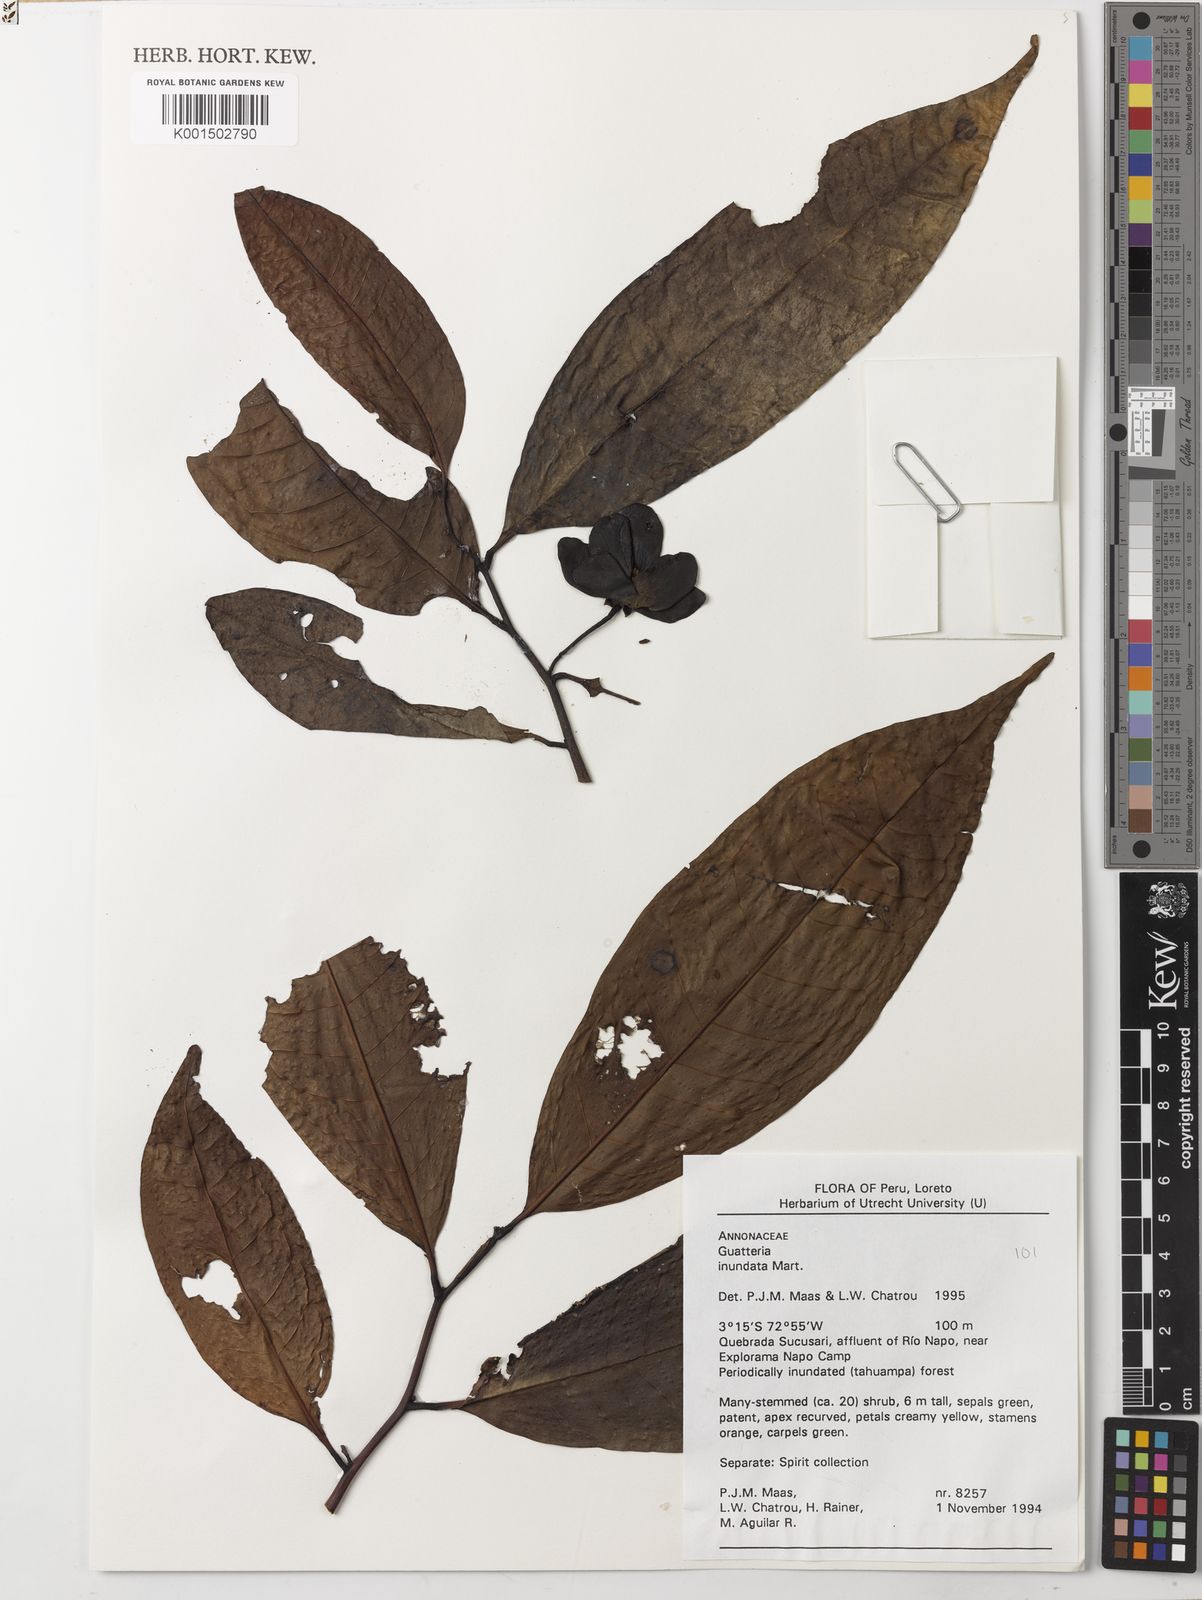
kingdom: Plantae
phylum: Tracheophyta
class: Magnoliopsida
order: Magnoliales
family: Annonaceae
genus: Guatteria
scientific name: Guatteria inundata
